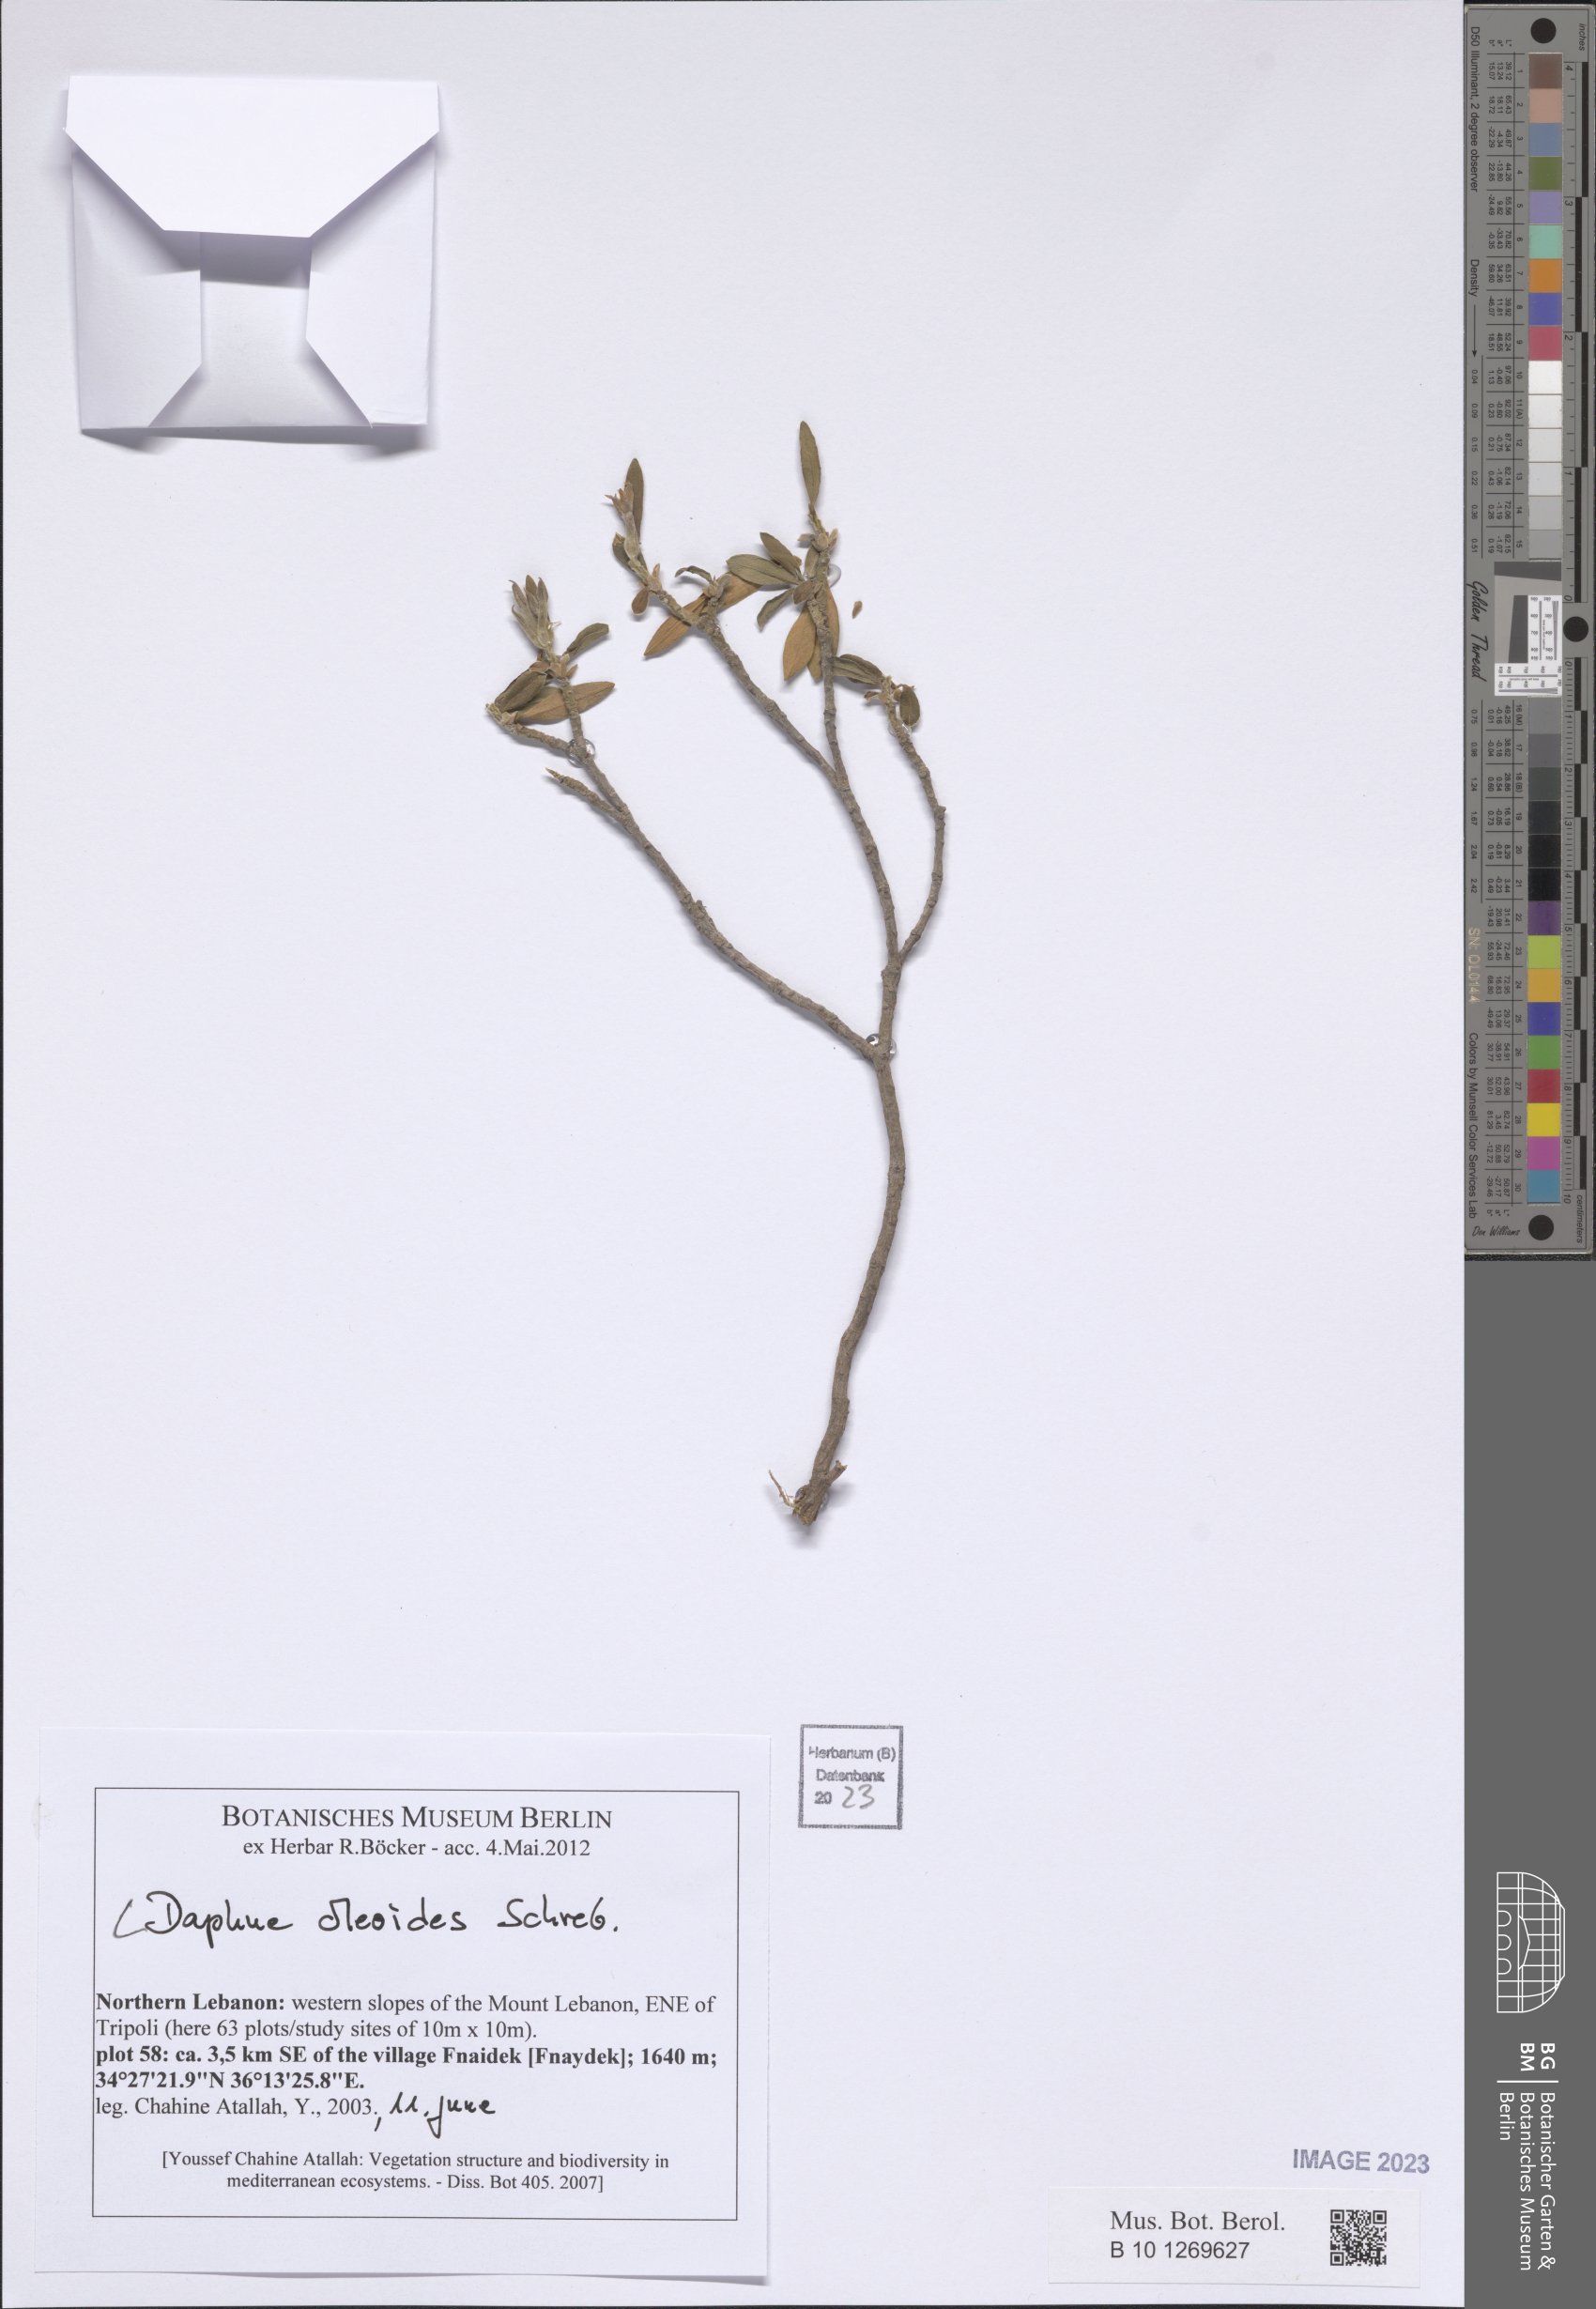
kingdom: Plantae
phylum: Tracheophyta
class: Magnoliopsida
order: Malvales
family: Thymelaeaceae
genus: Daphne
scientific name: Daphne oleoides
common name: Spurge-olive
